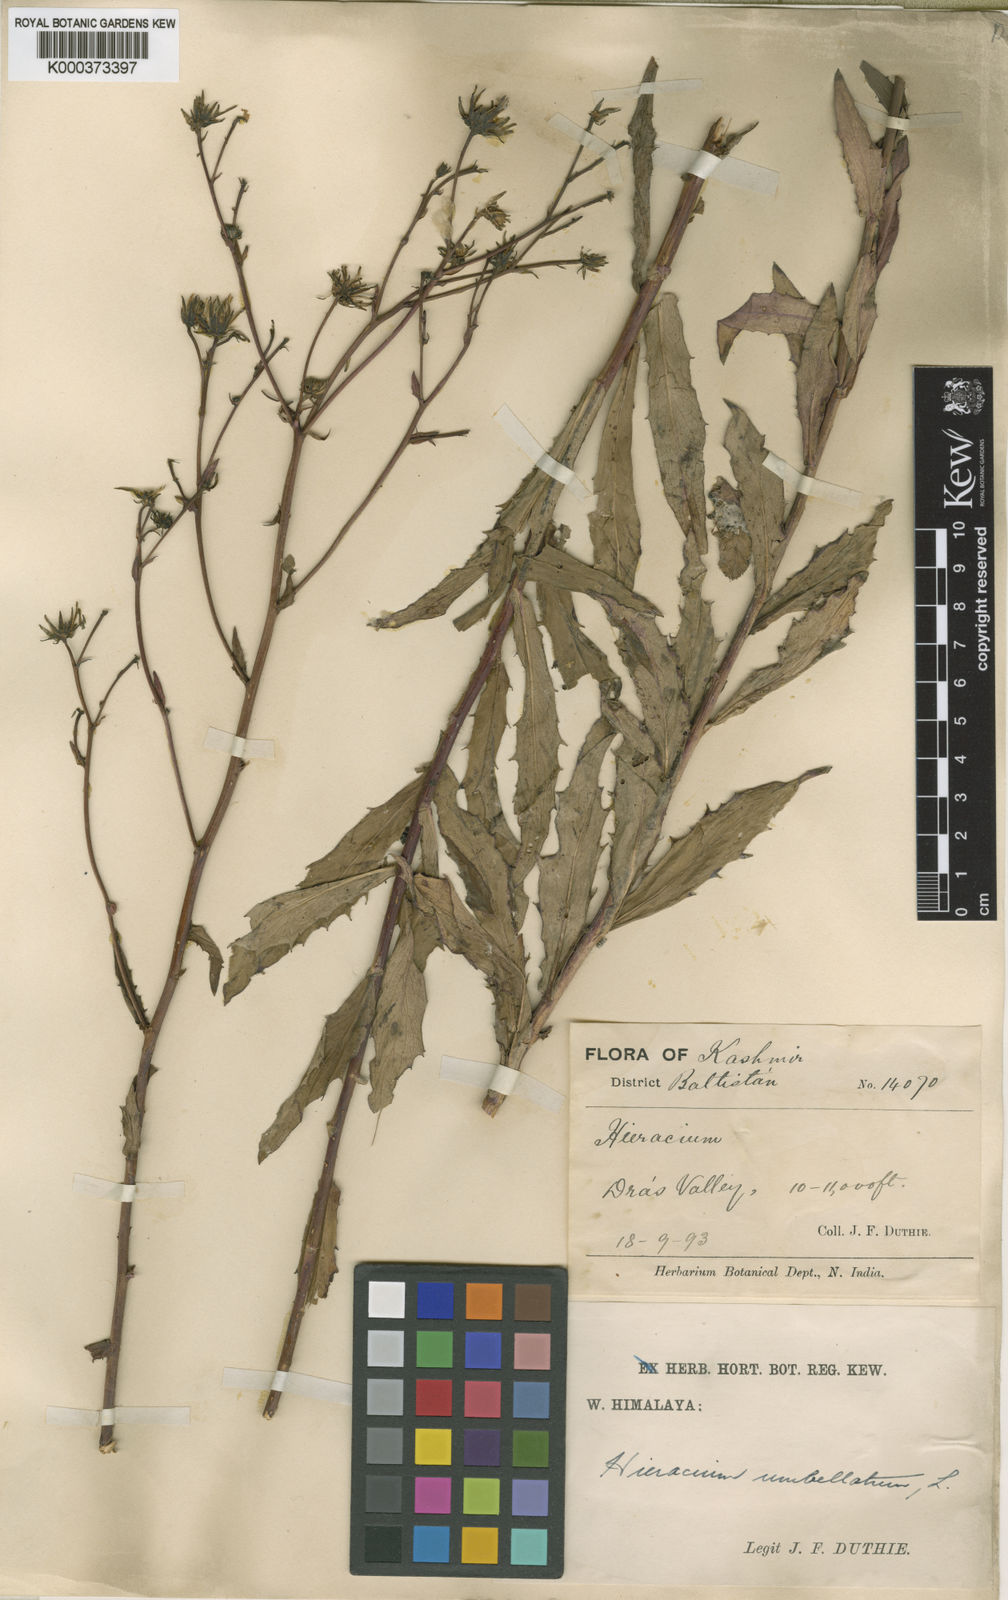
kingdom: Plantae
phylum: Tracheophyta
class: Magnoliopsida
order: Asterales
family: Asteraceae
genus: Hieracium
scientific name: Hieracium umbellatum
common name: Northern hawkweed
